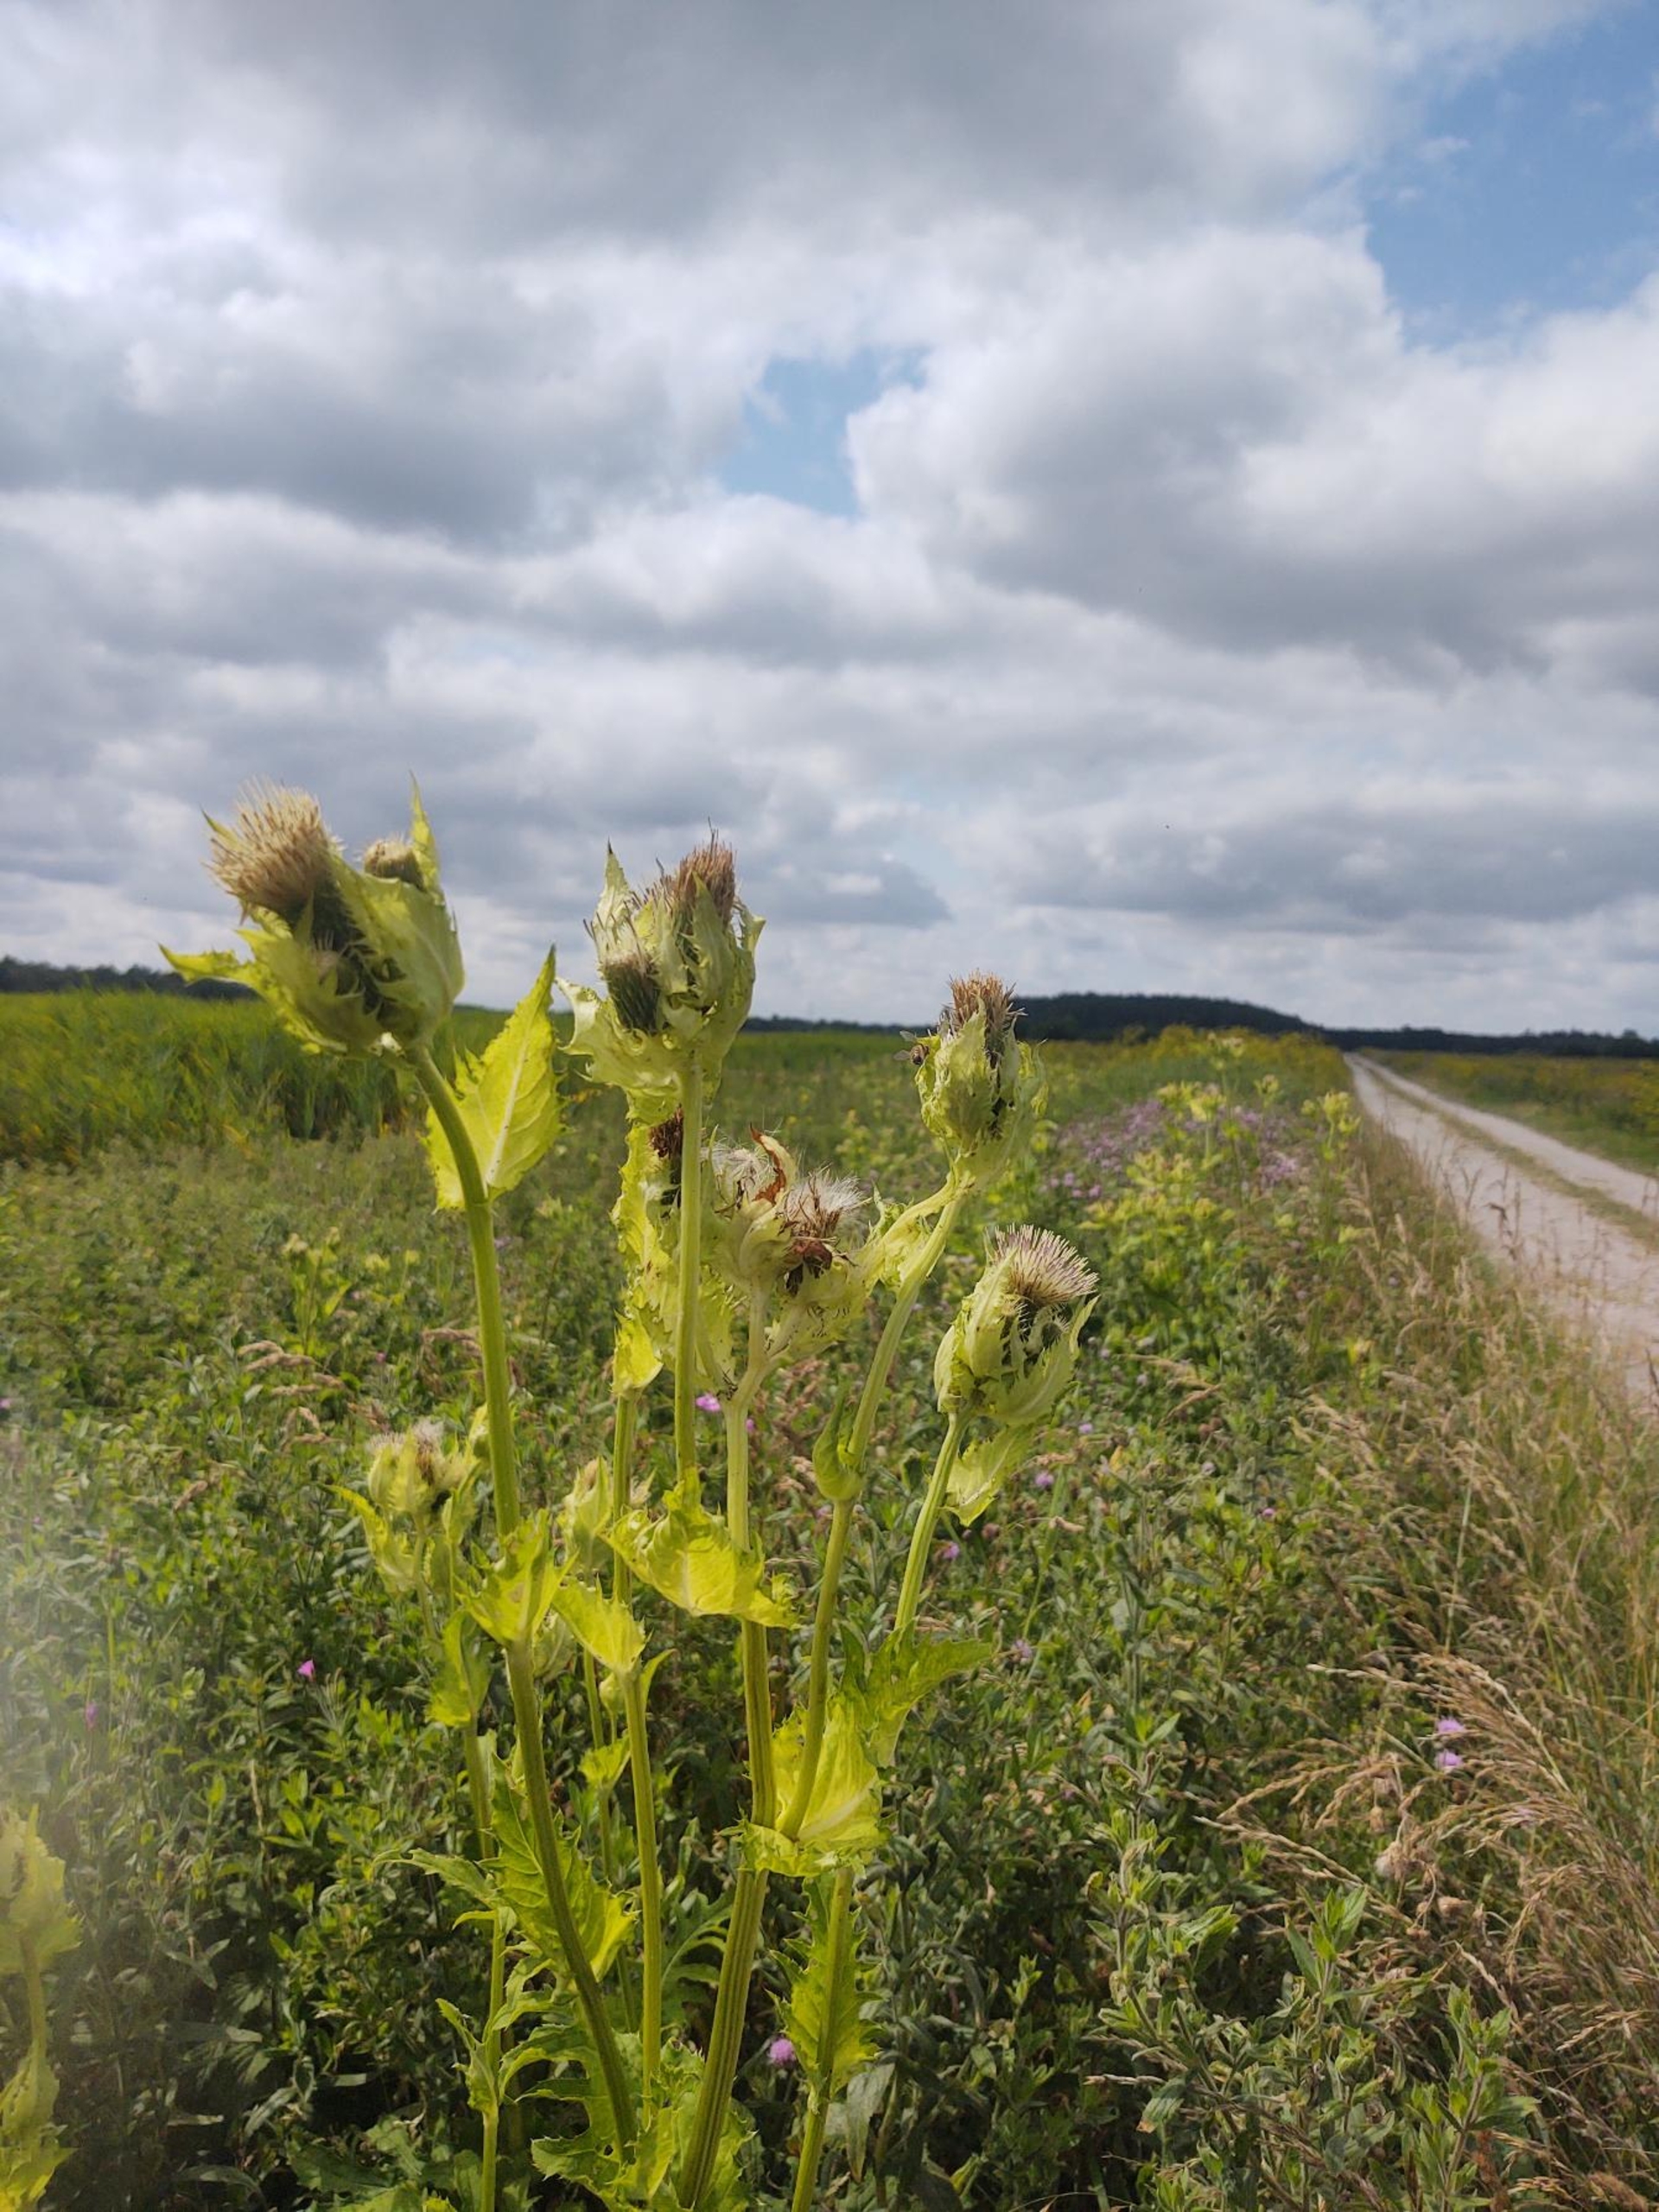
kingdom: Plantae
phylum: Tracheophyta
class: Magnoliopsida
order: Asterales
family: Asteraceae
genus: Cirsium
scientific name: Cirsium oleraceum
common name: Kål-tidsel
